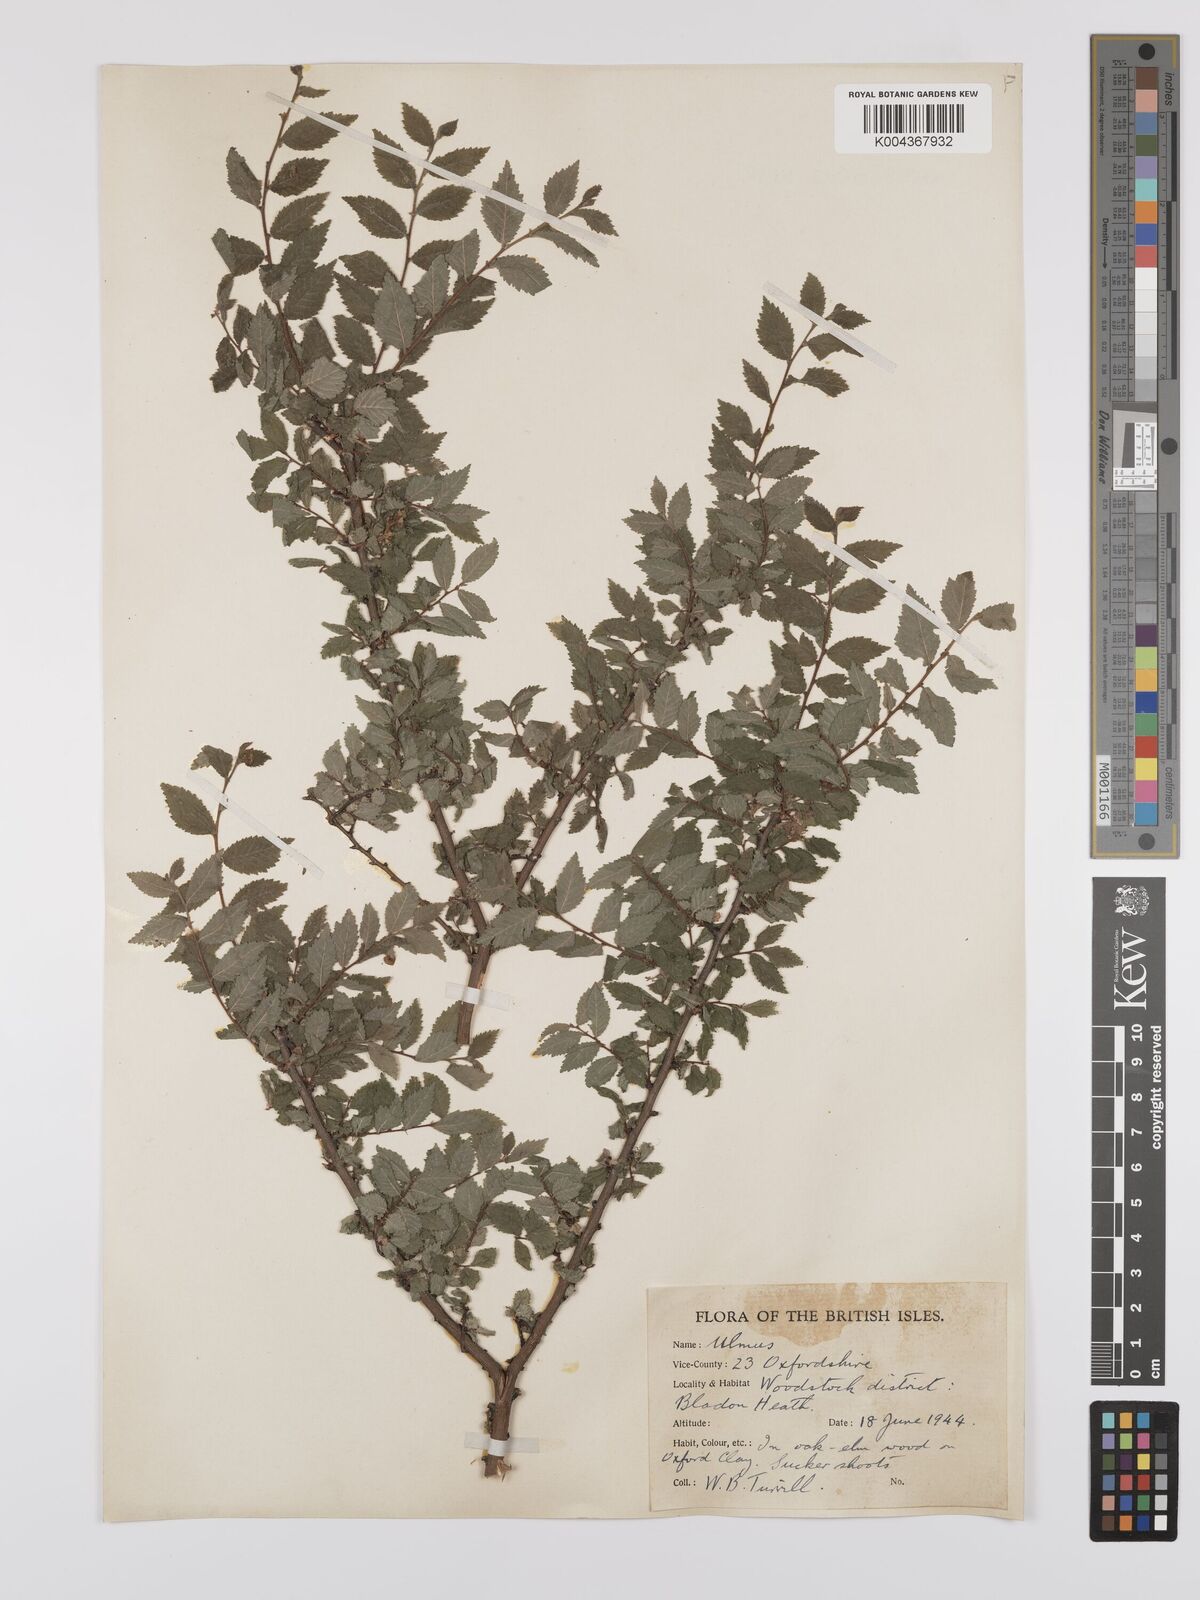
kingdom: Plantae
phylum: Tracheophyta
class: Magnoliopsida
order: Rosales
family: Ulmaceae
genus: Ulmus
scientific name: Ulmus
